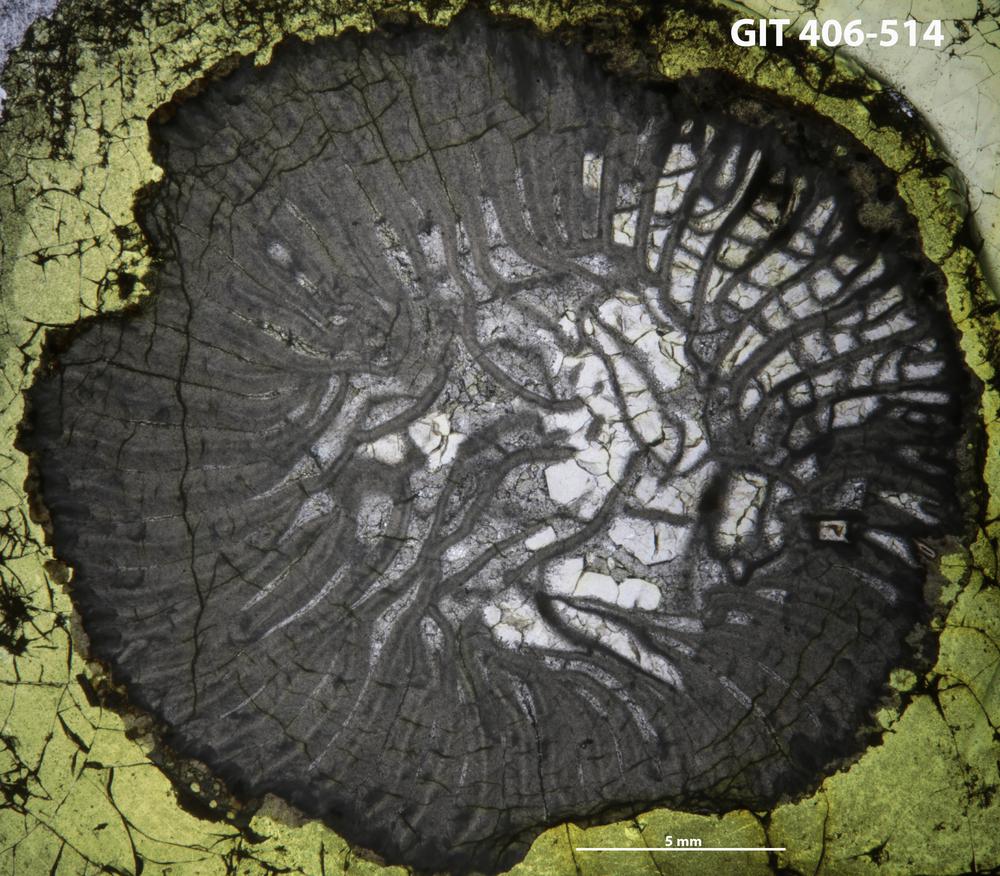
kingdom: Animalia
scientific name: Animalia
